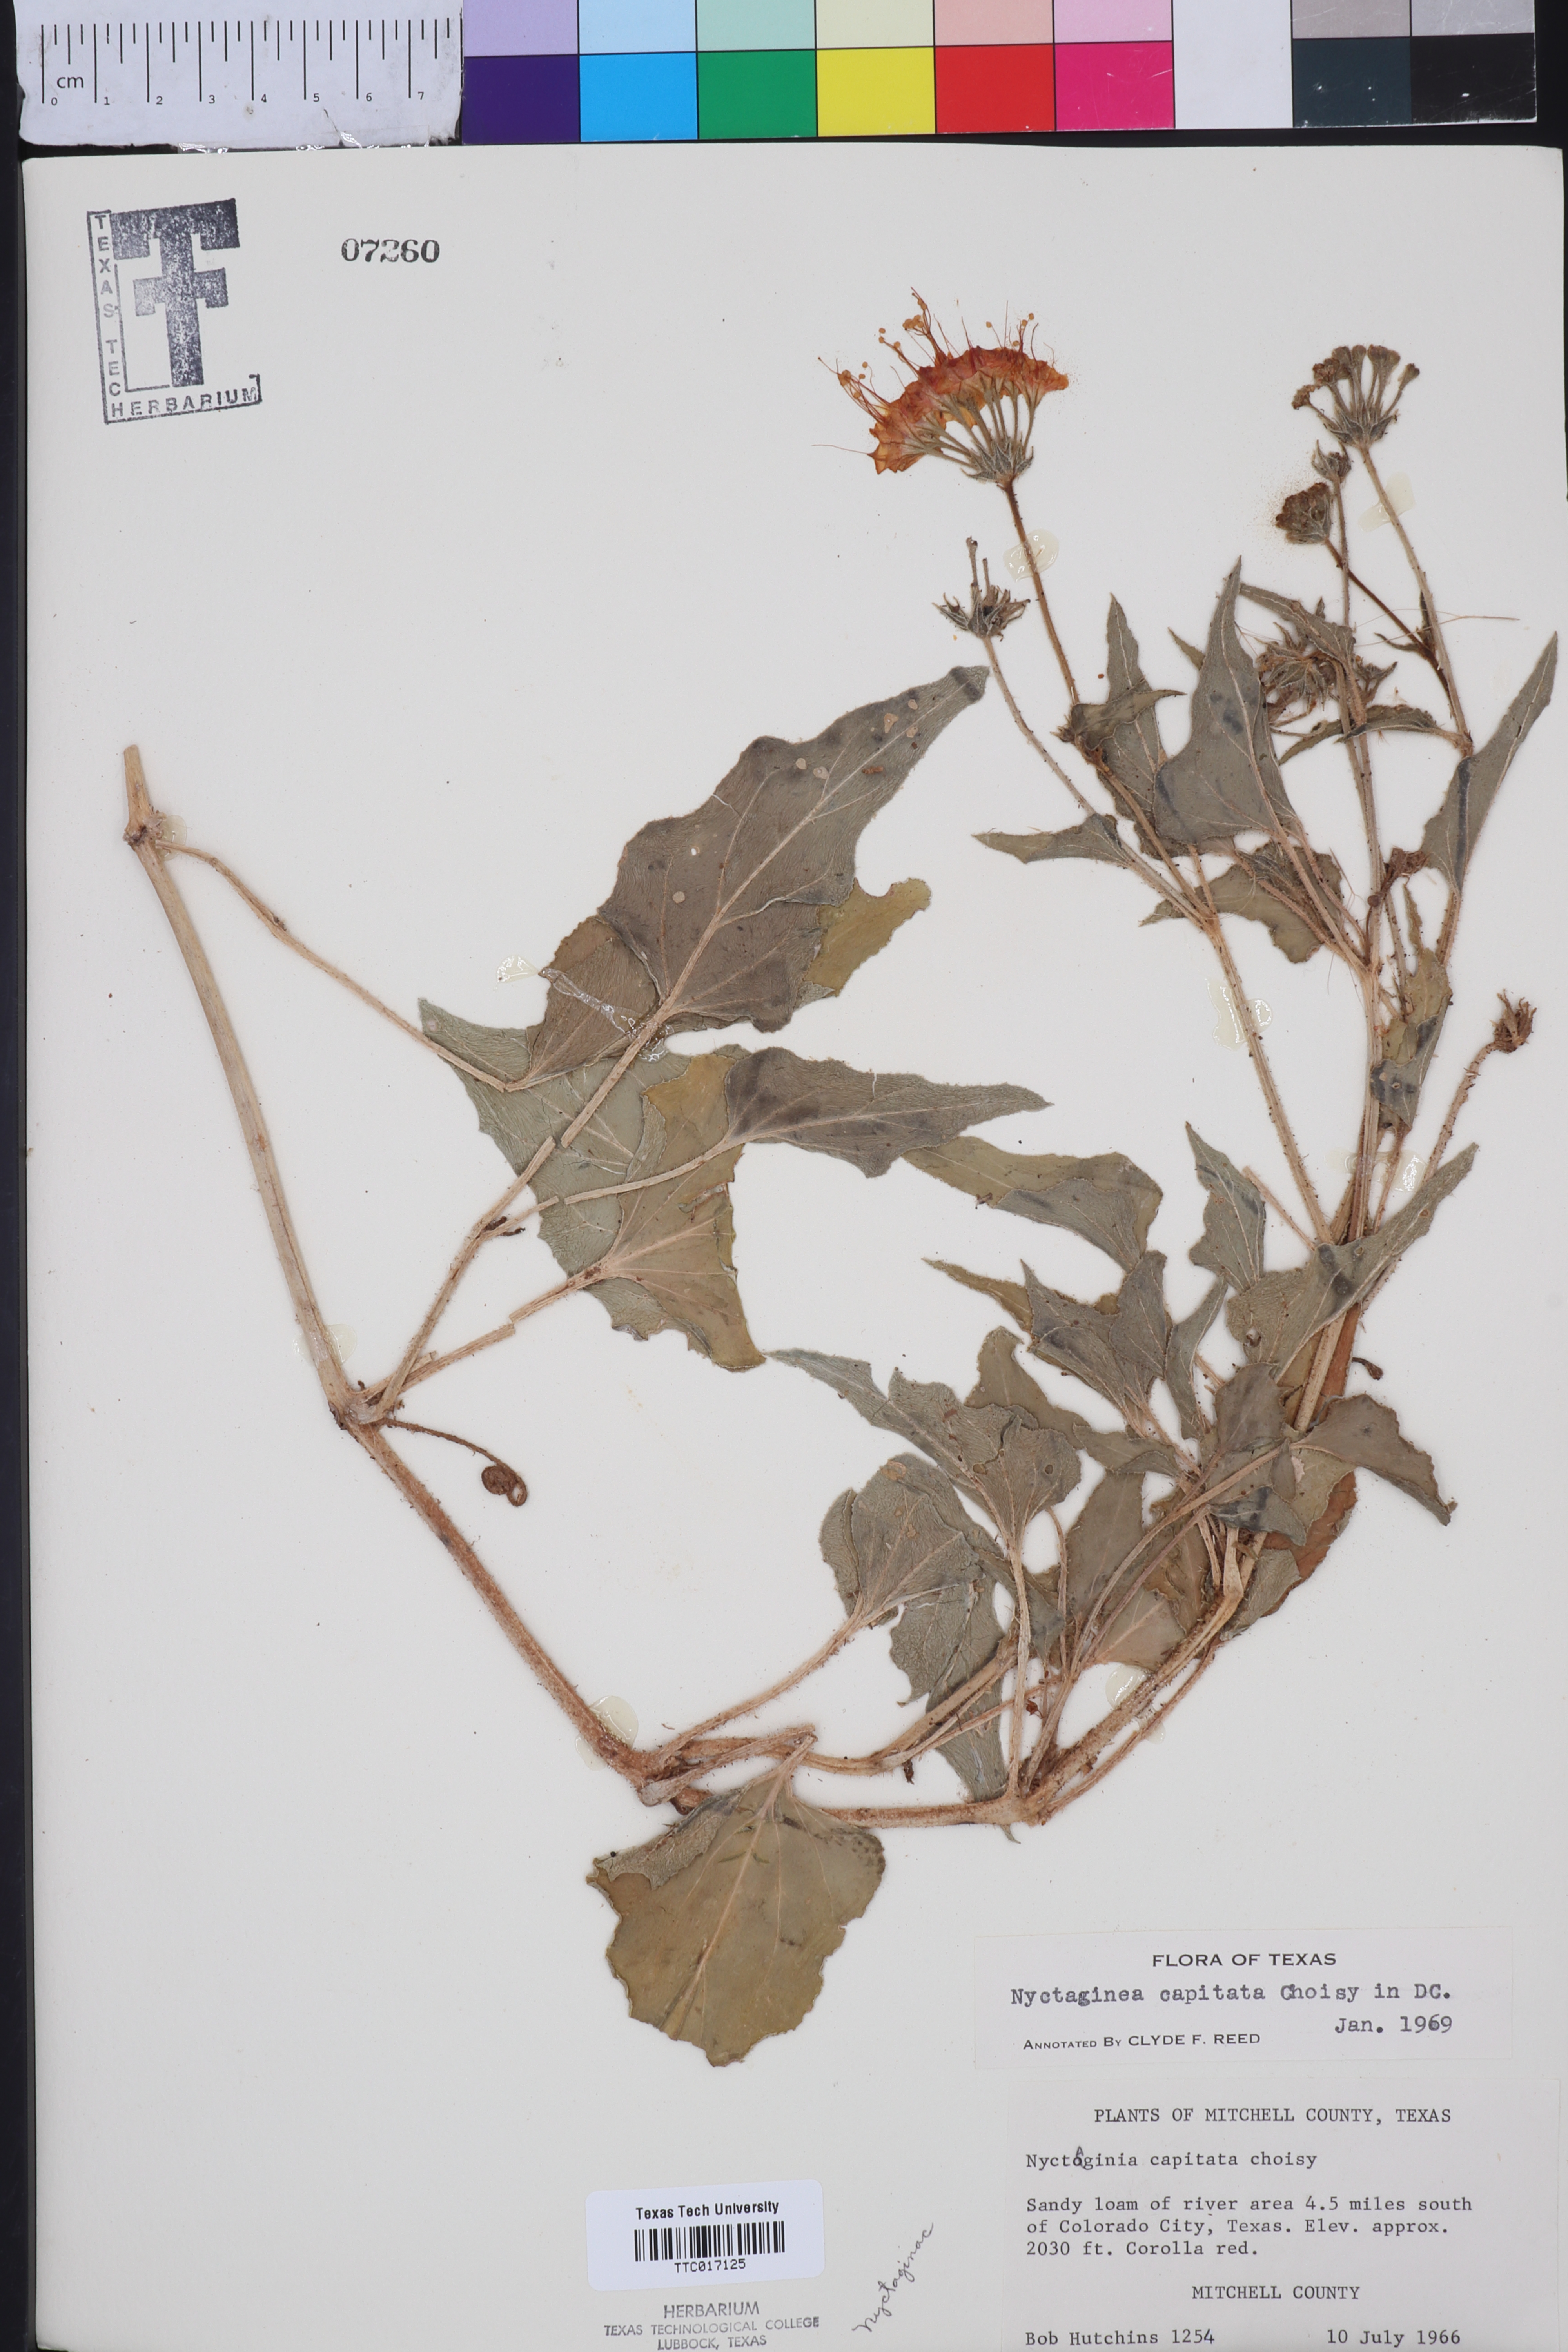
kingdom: Plantae
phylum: Tracheophyta
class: Magnoliopsida
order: Caryophyllales
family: Nyctaginaceae
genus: Nyctaginia
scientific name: Nyctaginia capitata
